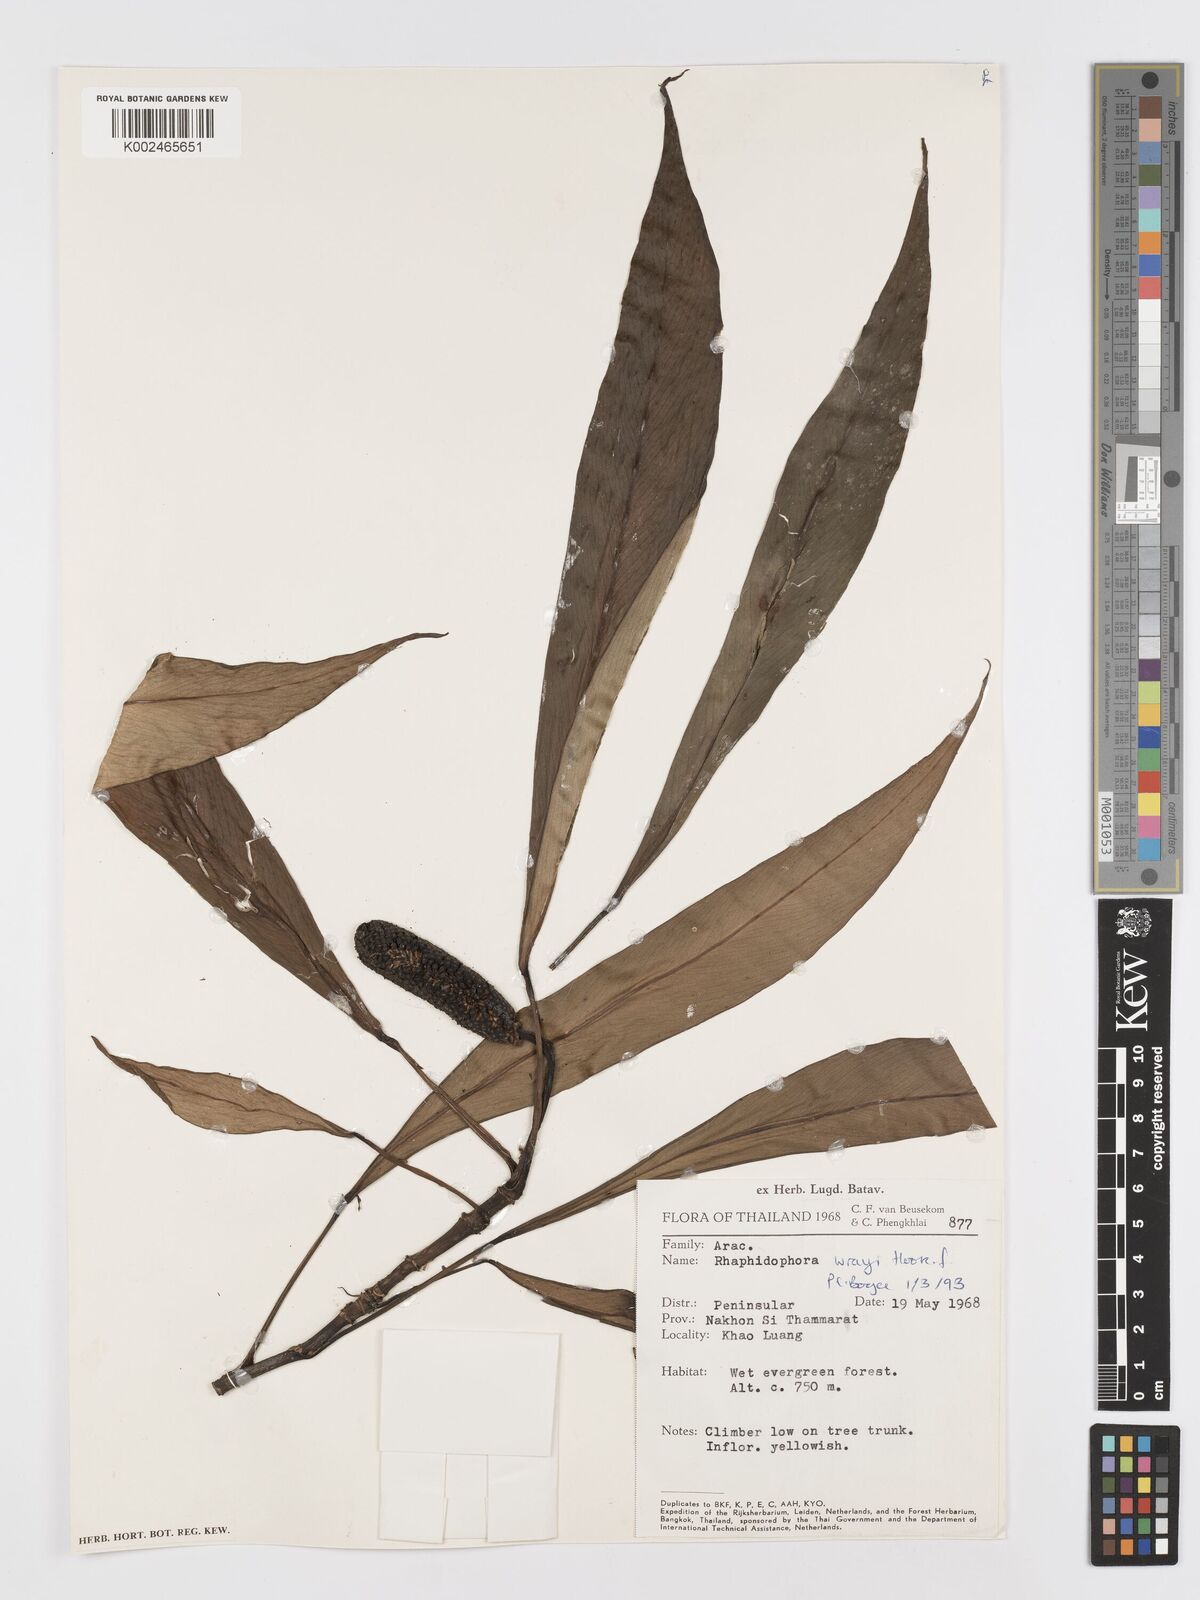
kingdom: Plantae
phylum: Tracheophyta
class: Liliopsida
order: Alismatales
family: Araceae
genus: Rhaphidophora
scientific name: Rhaphidophora sylvestris
